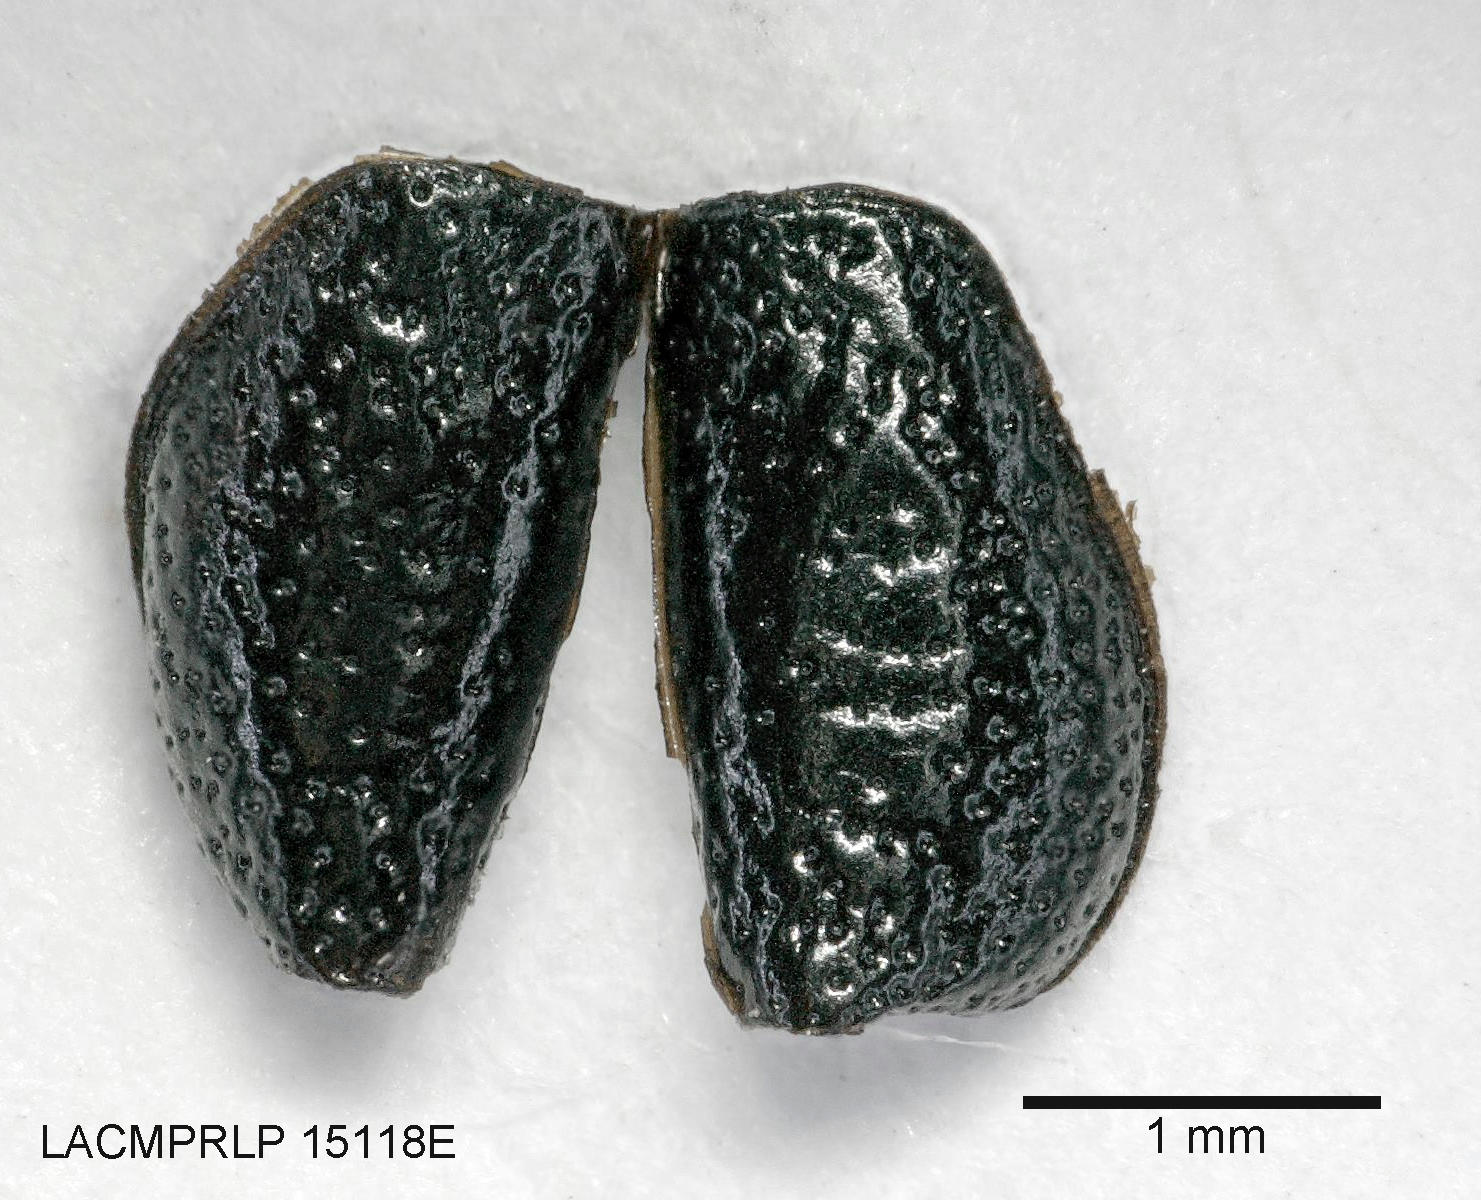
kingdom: Animalia
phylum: Arthropoda
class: Insecta
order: Coleoptera
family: Carabidae
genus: Dicheirus
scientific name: Dicheirus
